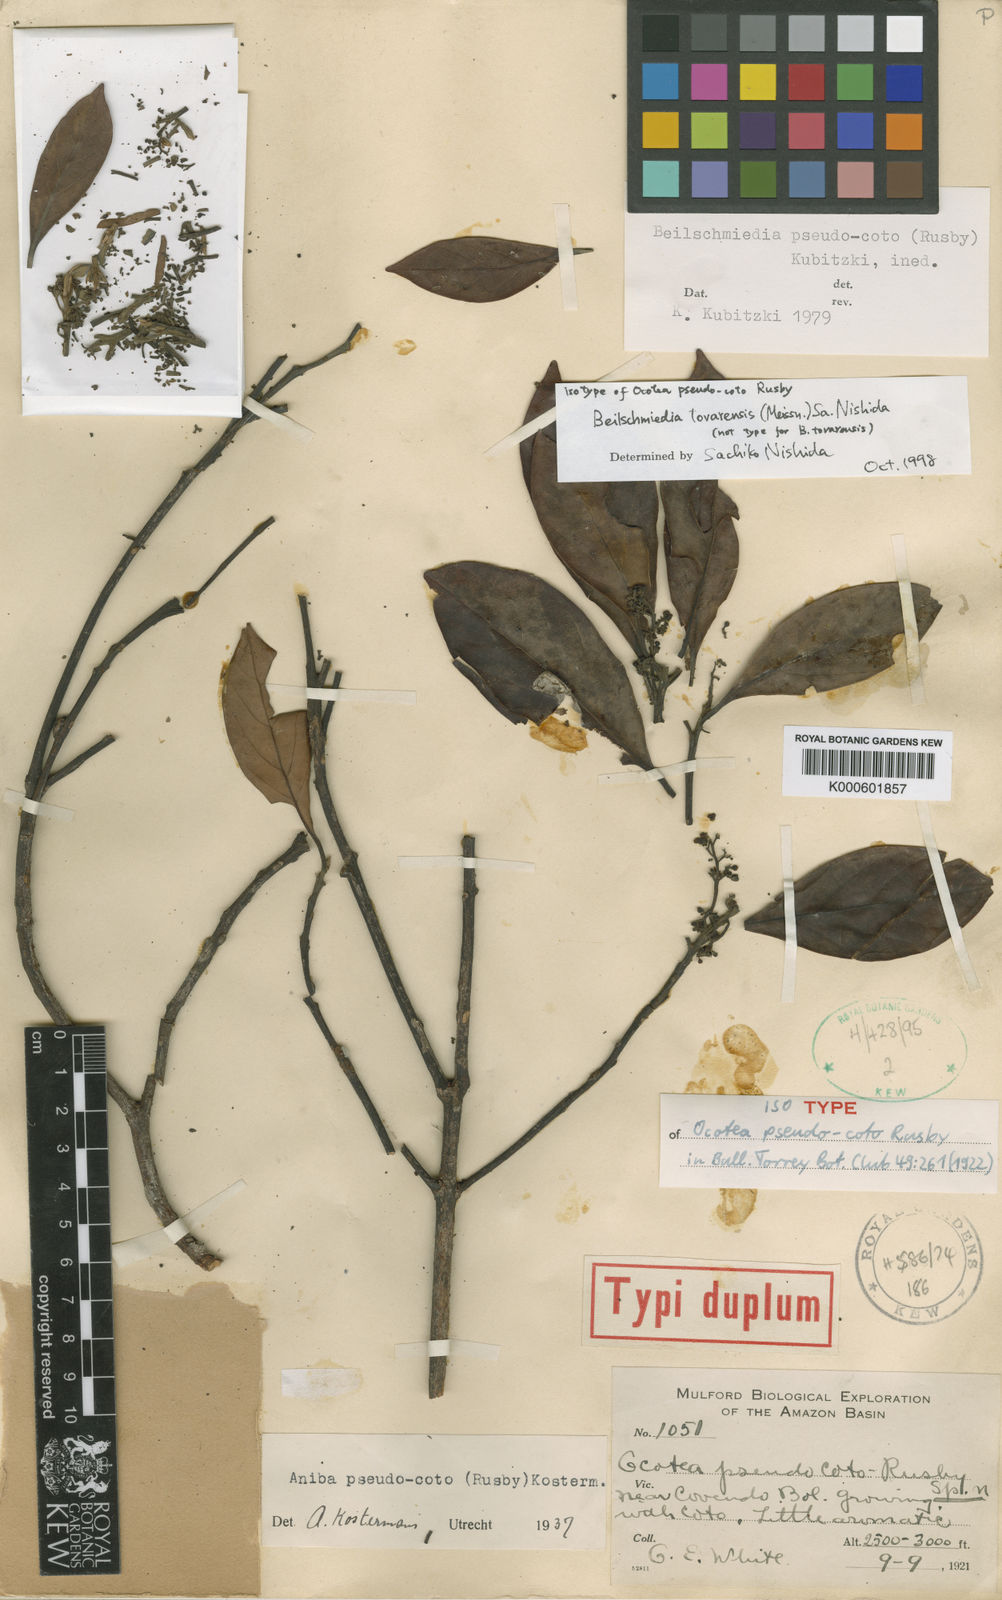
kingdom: Plantae
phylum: Tracheophyta
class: Magnoliopsida
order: Laurales
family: Lauraceae
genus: Beilschmiedia
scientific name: Beilschmiedia
